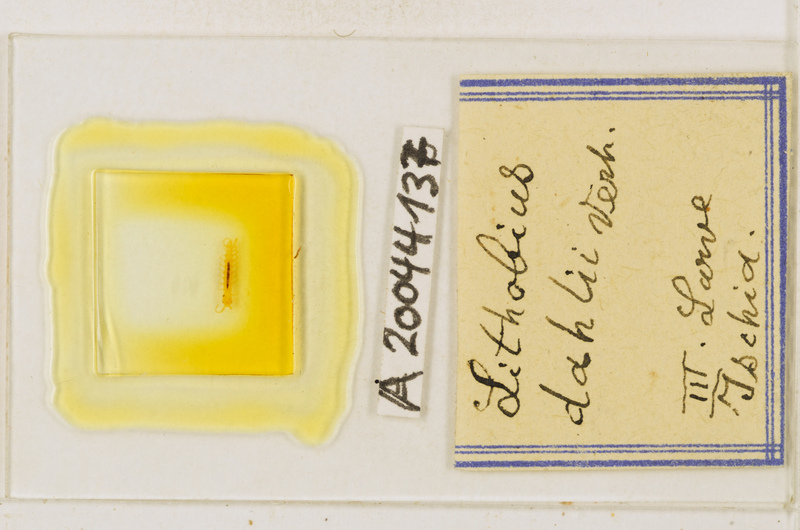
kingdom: Animalia
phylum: Arthropoda
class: Chilopoda
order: Lithobiomorpha
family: Lithobiidae
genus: Lithobius
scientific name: Lithobius dahlii
